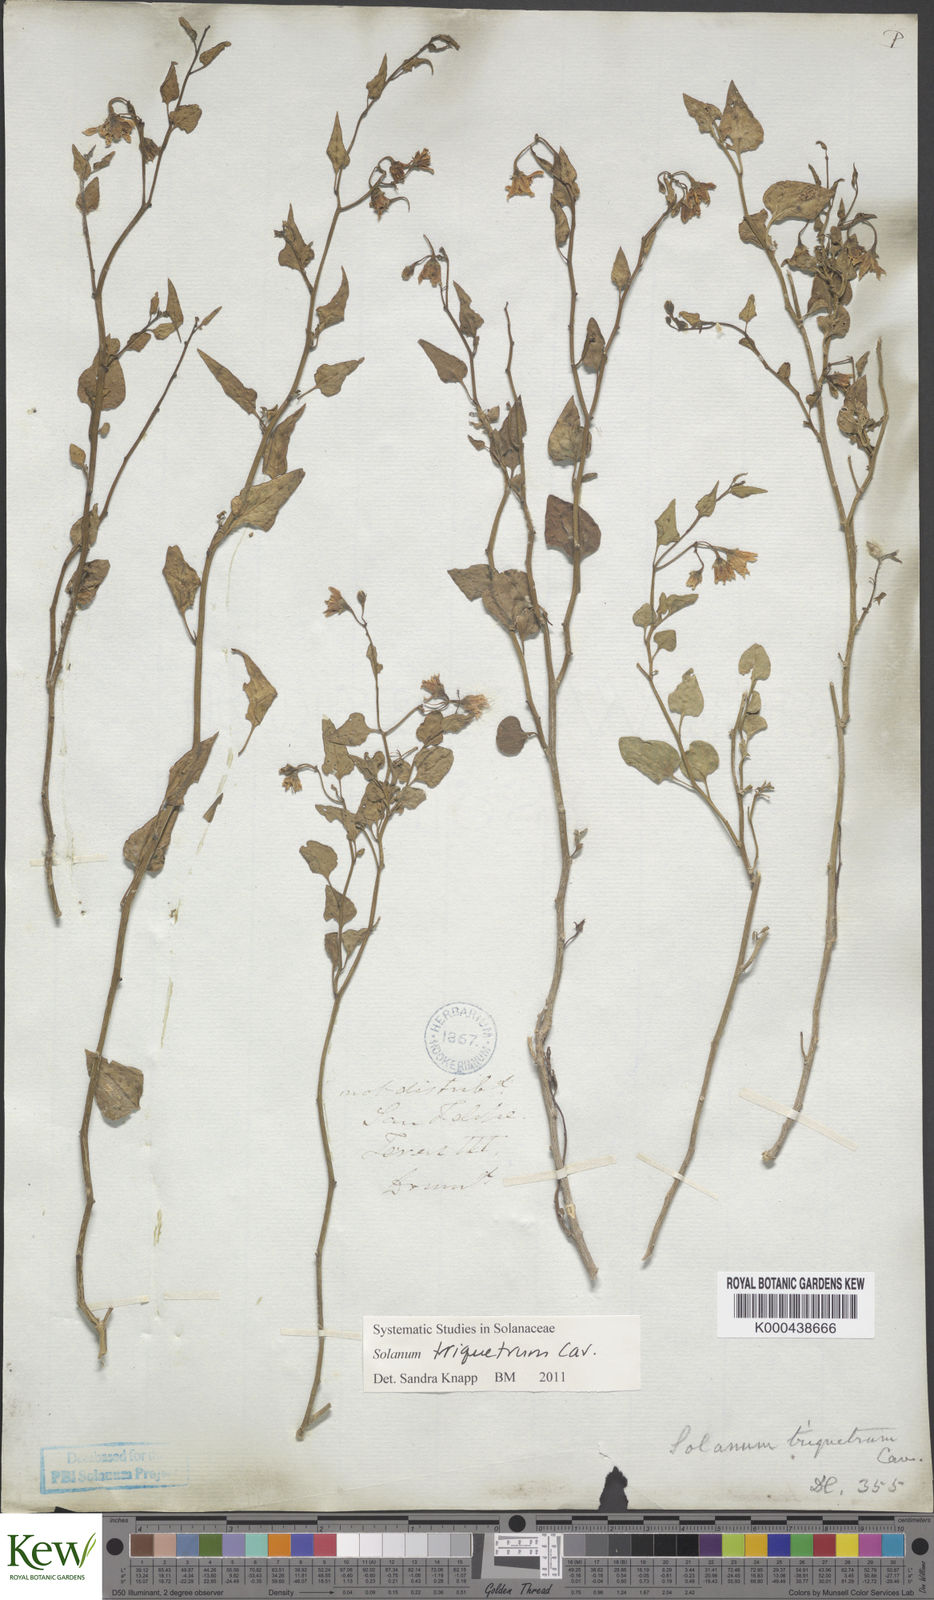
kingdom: Plantae
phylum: Tracheophyta
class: Magnoliopsida
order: Solanales
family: Solanaceae
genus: Solanum
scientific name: Solanum triquetrum
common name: Texas nightshade
